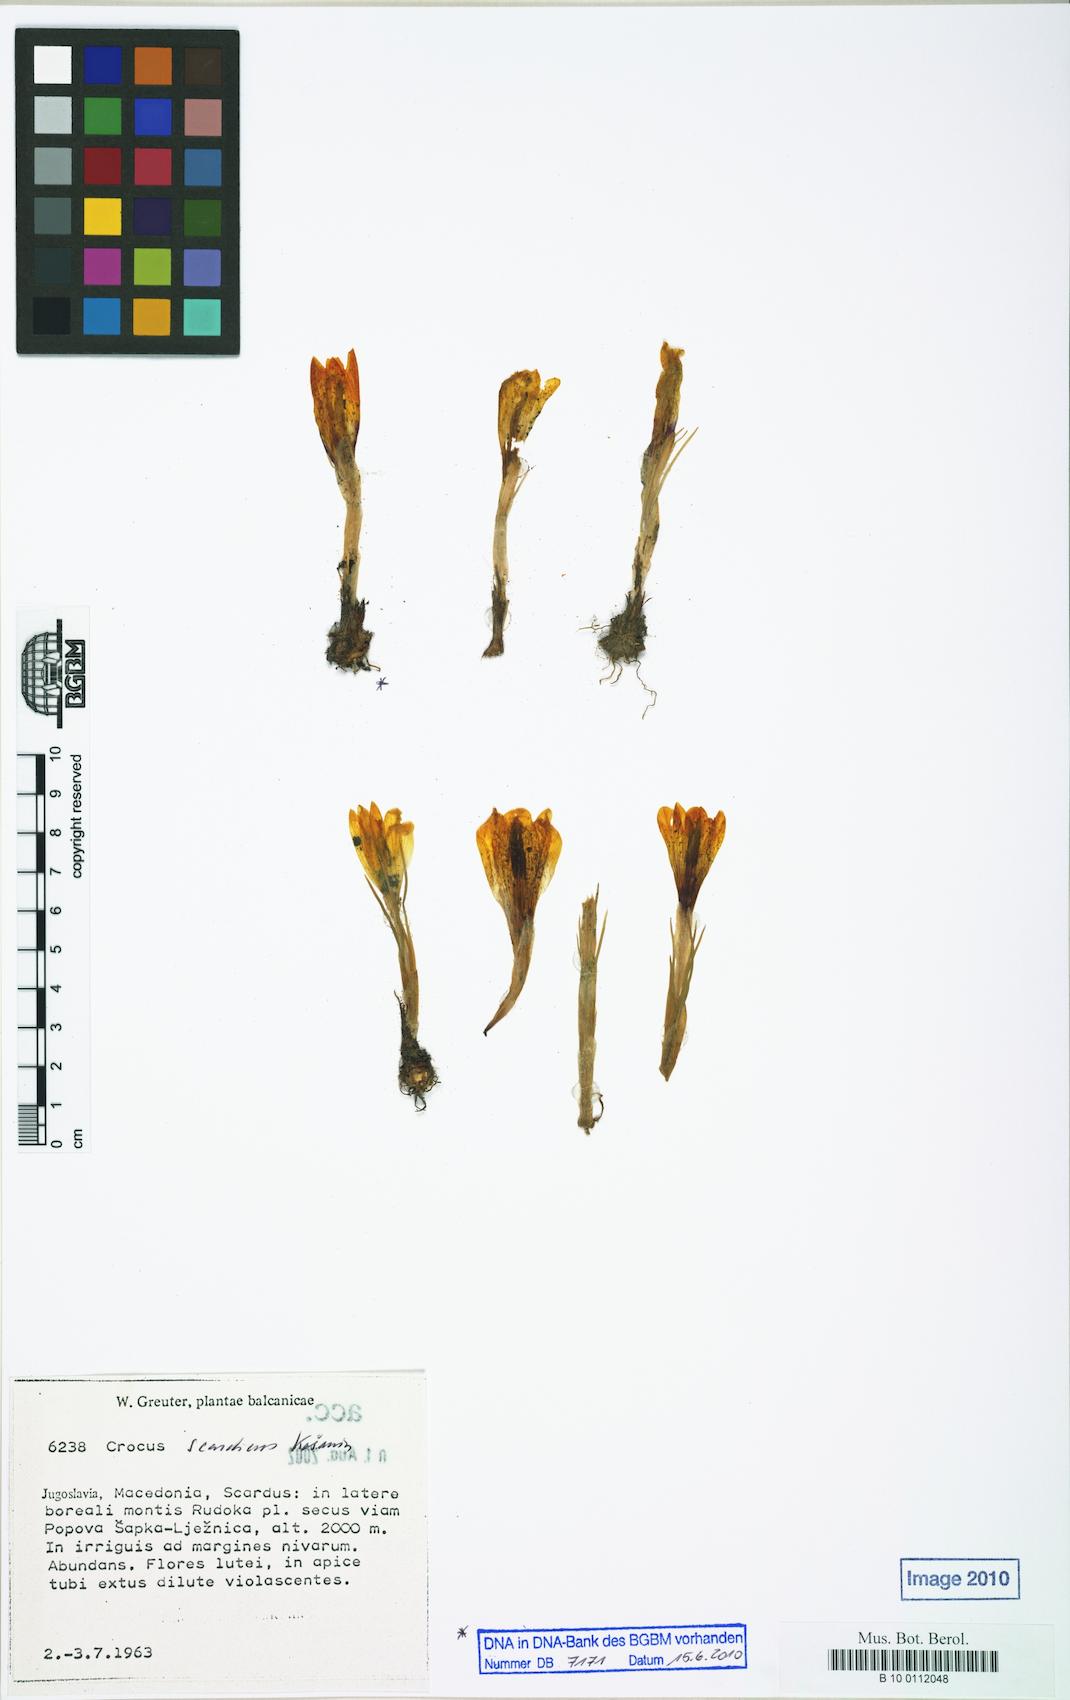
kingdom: Plantae
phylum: Tracheophyta
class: Liliopsida
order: Asparagales
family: Iridaceae
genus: Crocus
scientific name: Crocus scardicus
